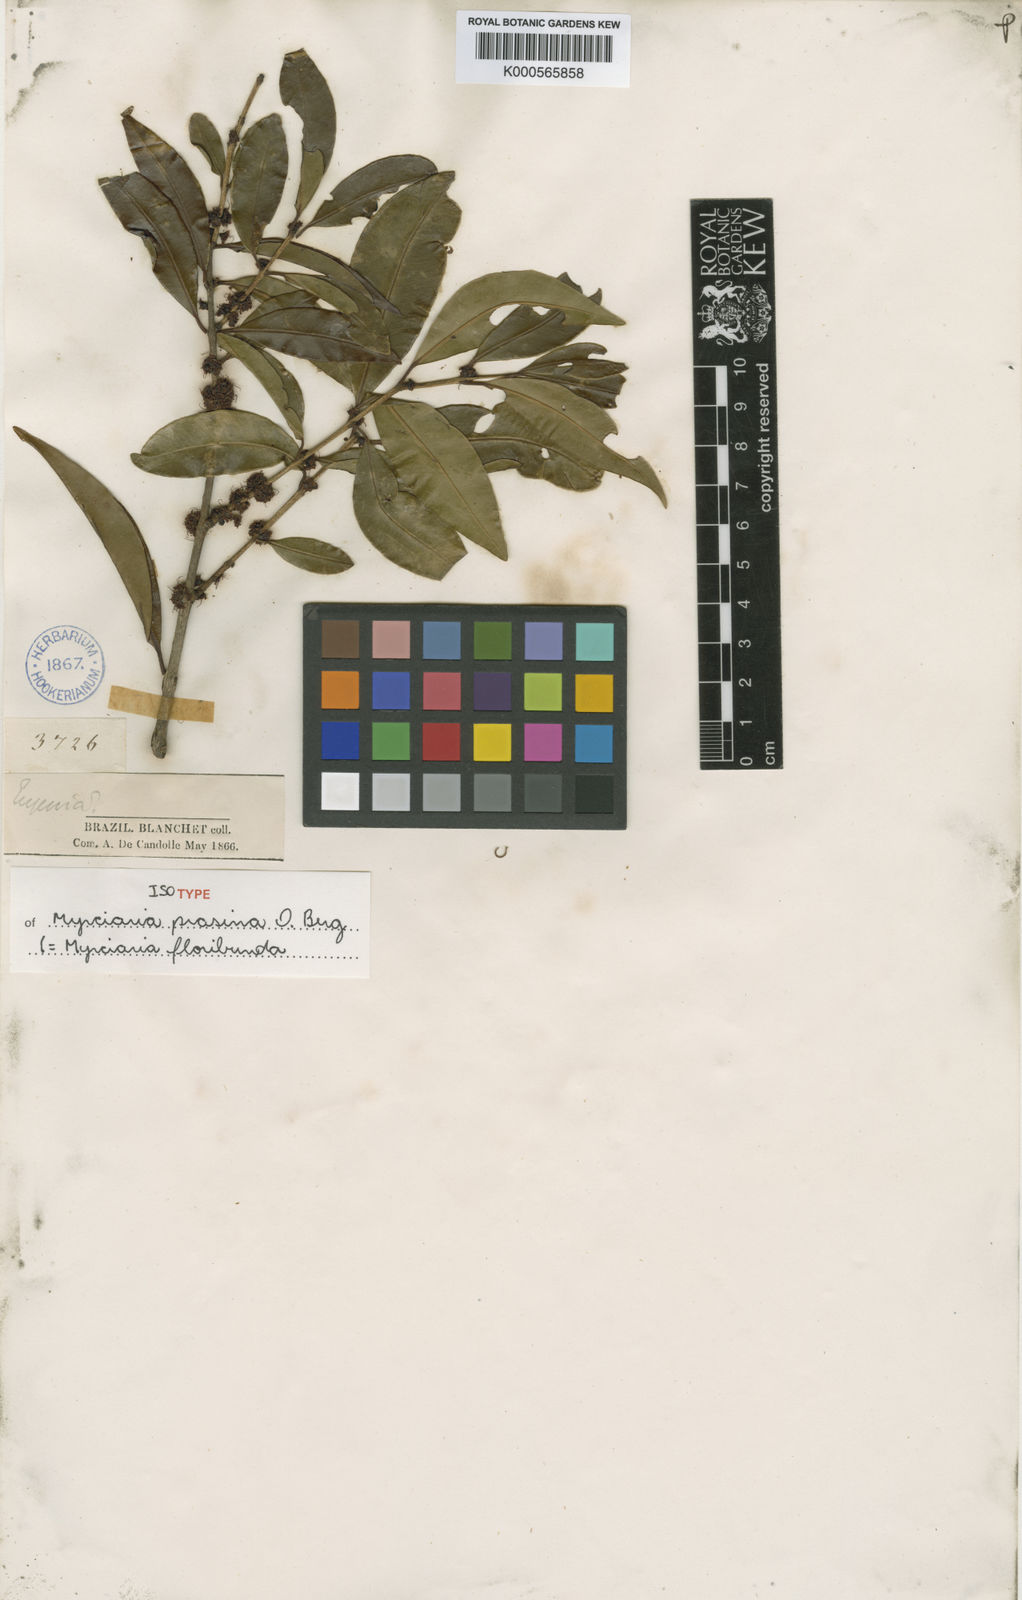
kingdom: Plantae
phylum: Tracheophyta
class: Magnoliopsida
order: Myrtales
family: Myrtaceae
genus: Myrciaria
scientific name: Myrciaria floribunda
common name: Guavaberry
